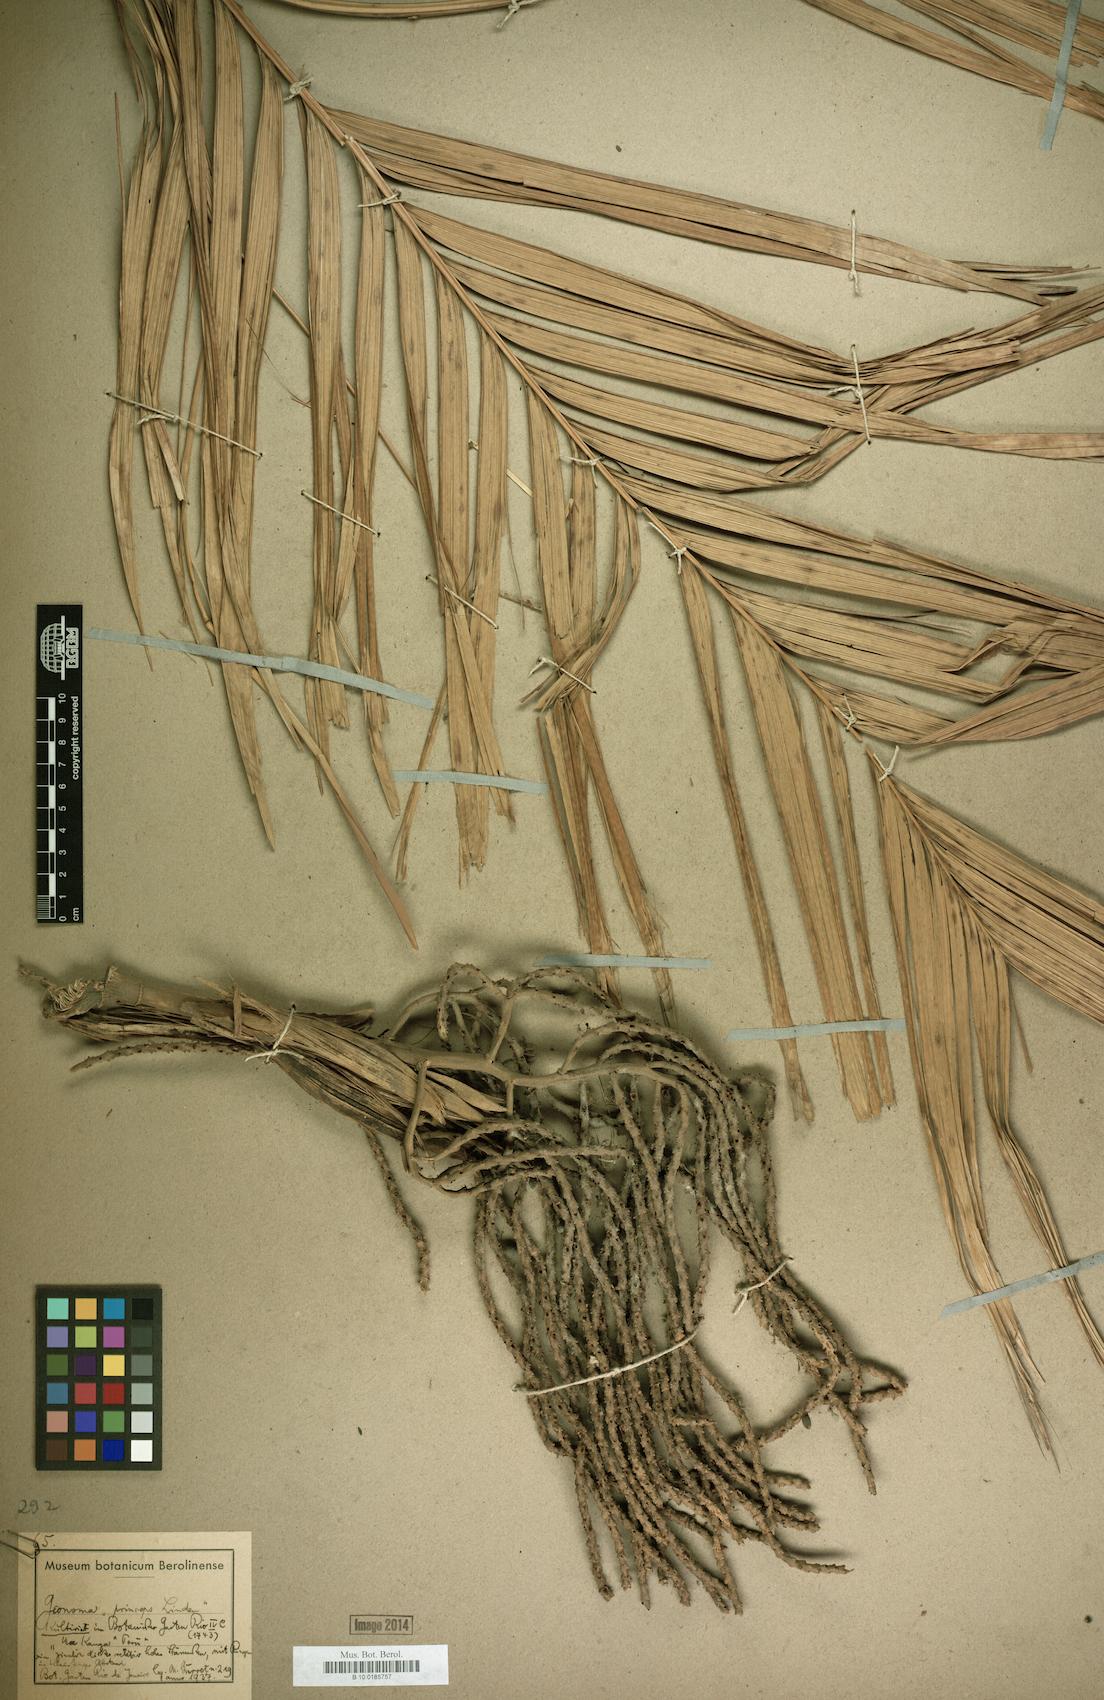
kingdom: Plantae
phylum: Tracheophyta
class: Liliopsida
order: Arecales
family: Arecaceae
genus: Geonoma
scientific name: Geonoma princeps
